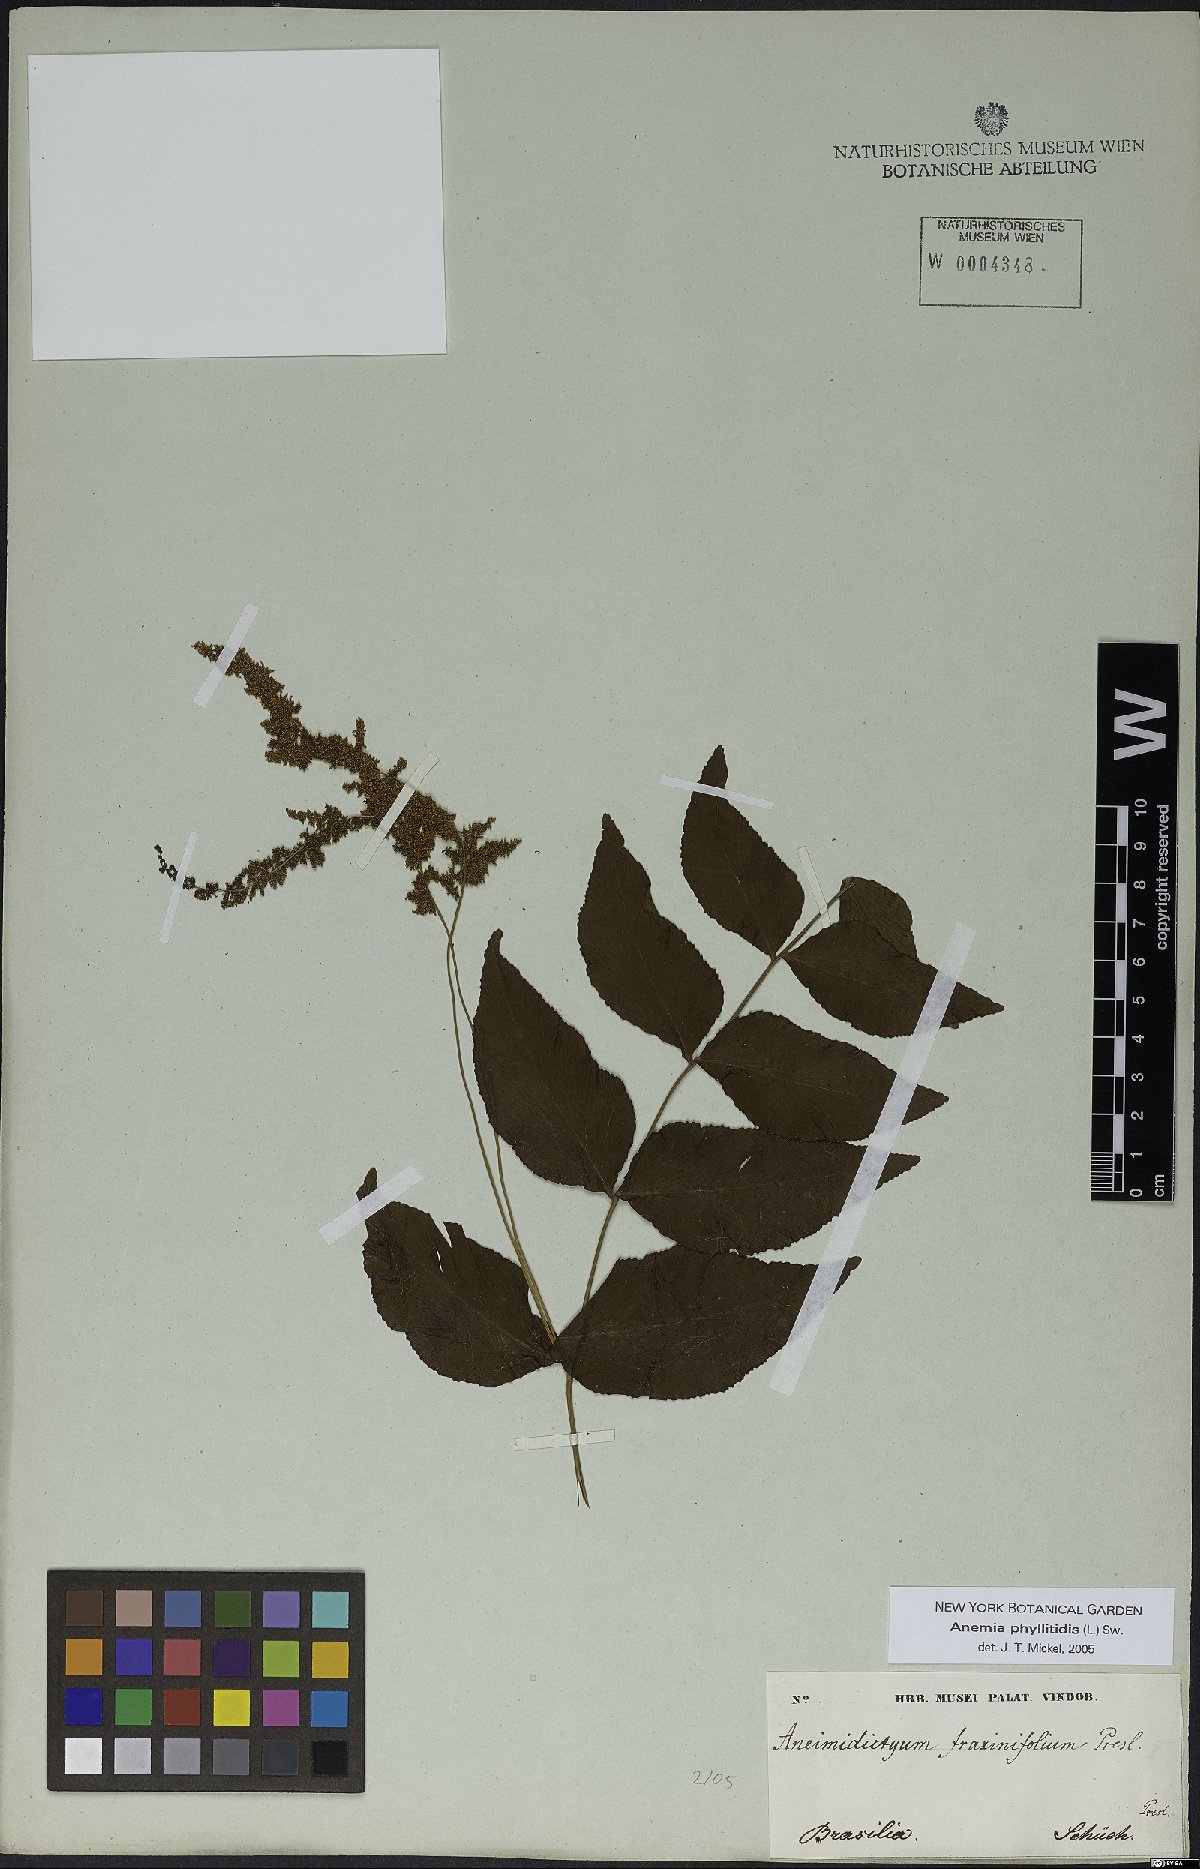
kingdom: Plantae
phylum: Tracheophyta
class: Polypodiopsida
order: Schizaeales
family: Anemiaceae
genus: Anemia
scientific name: Anemia phyllitidis
